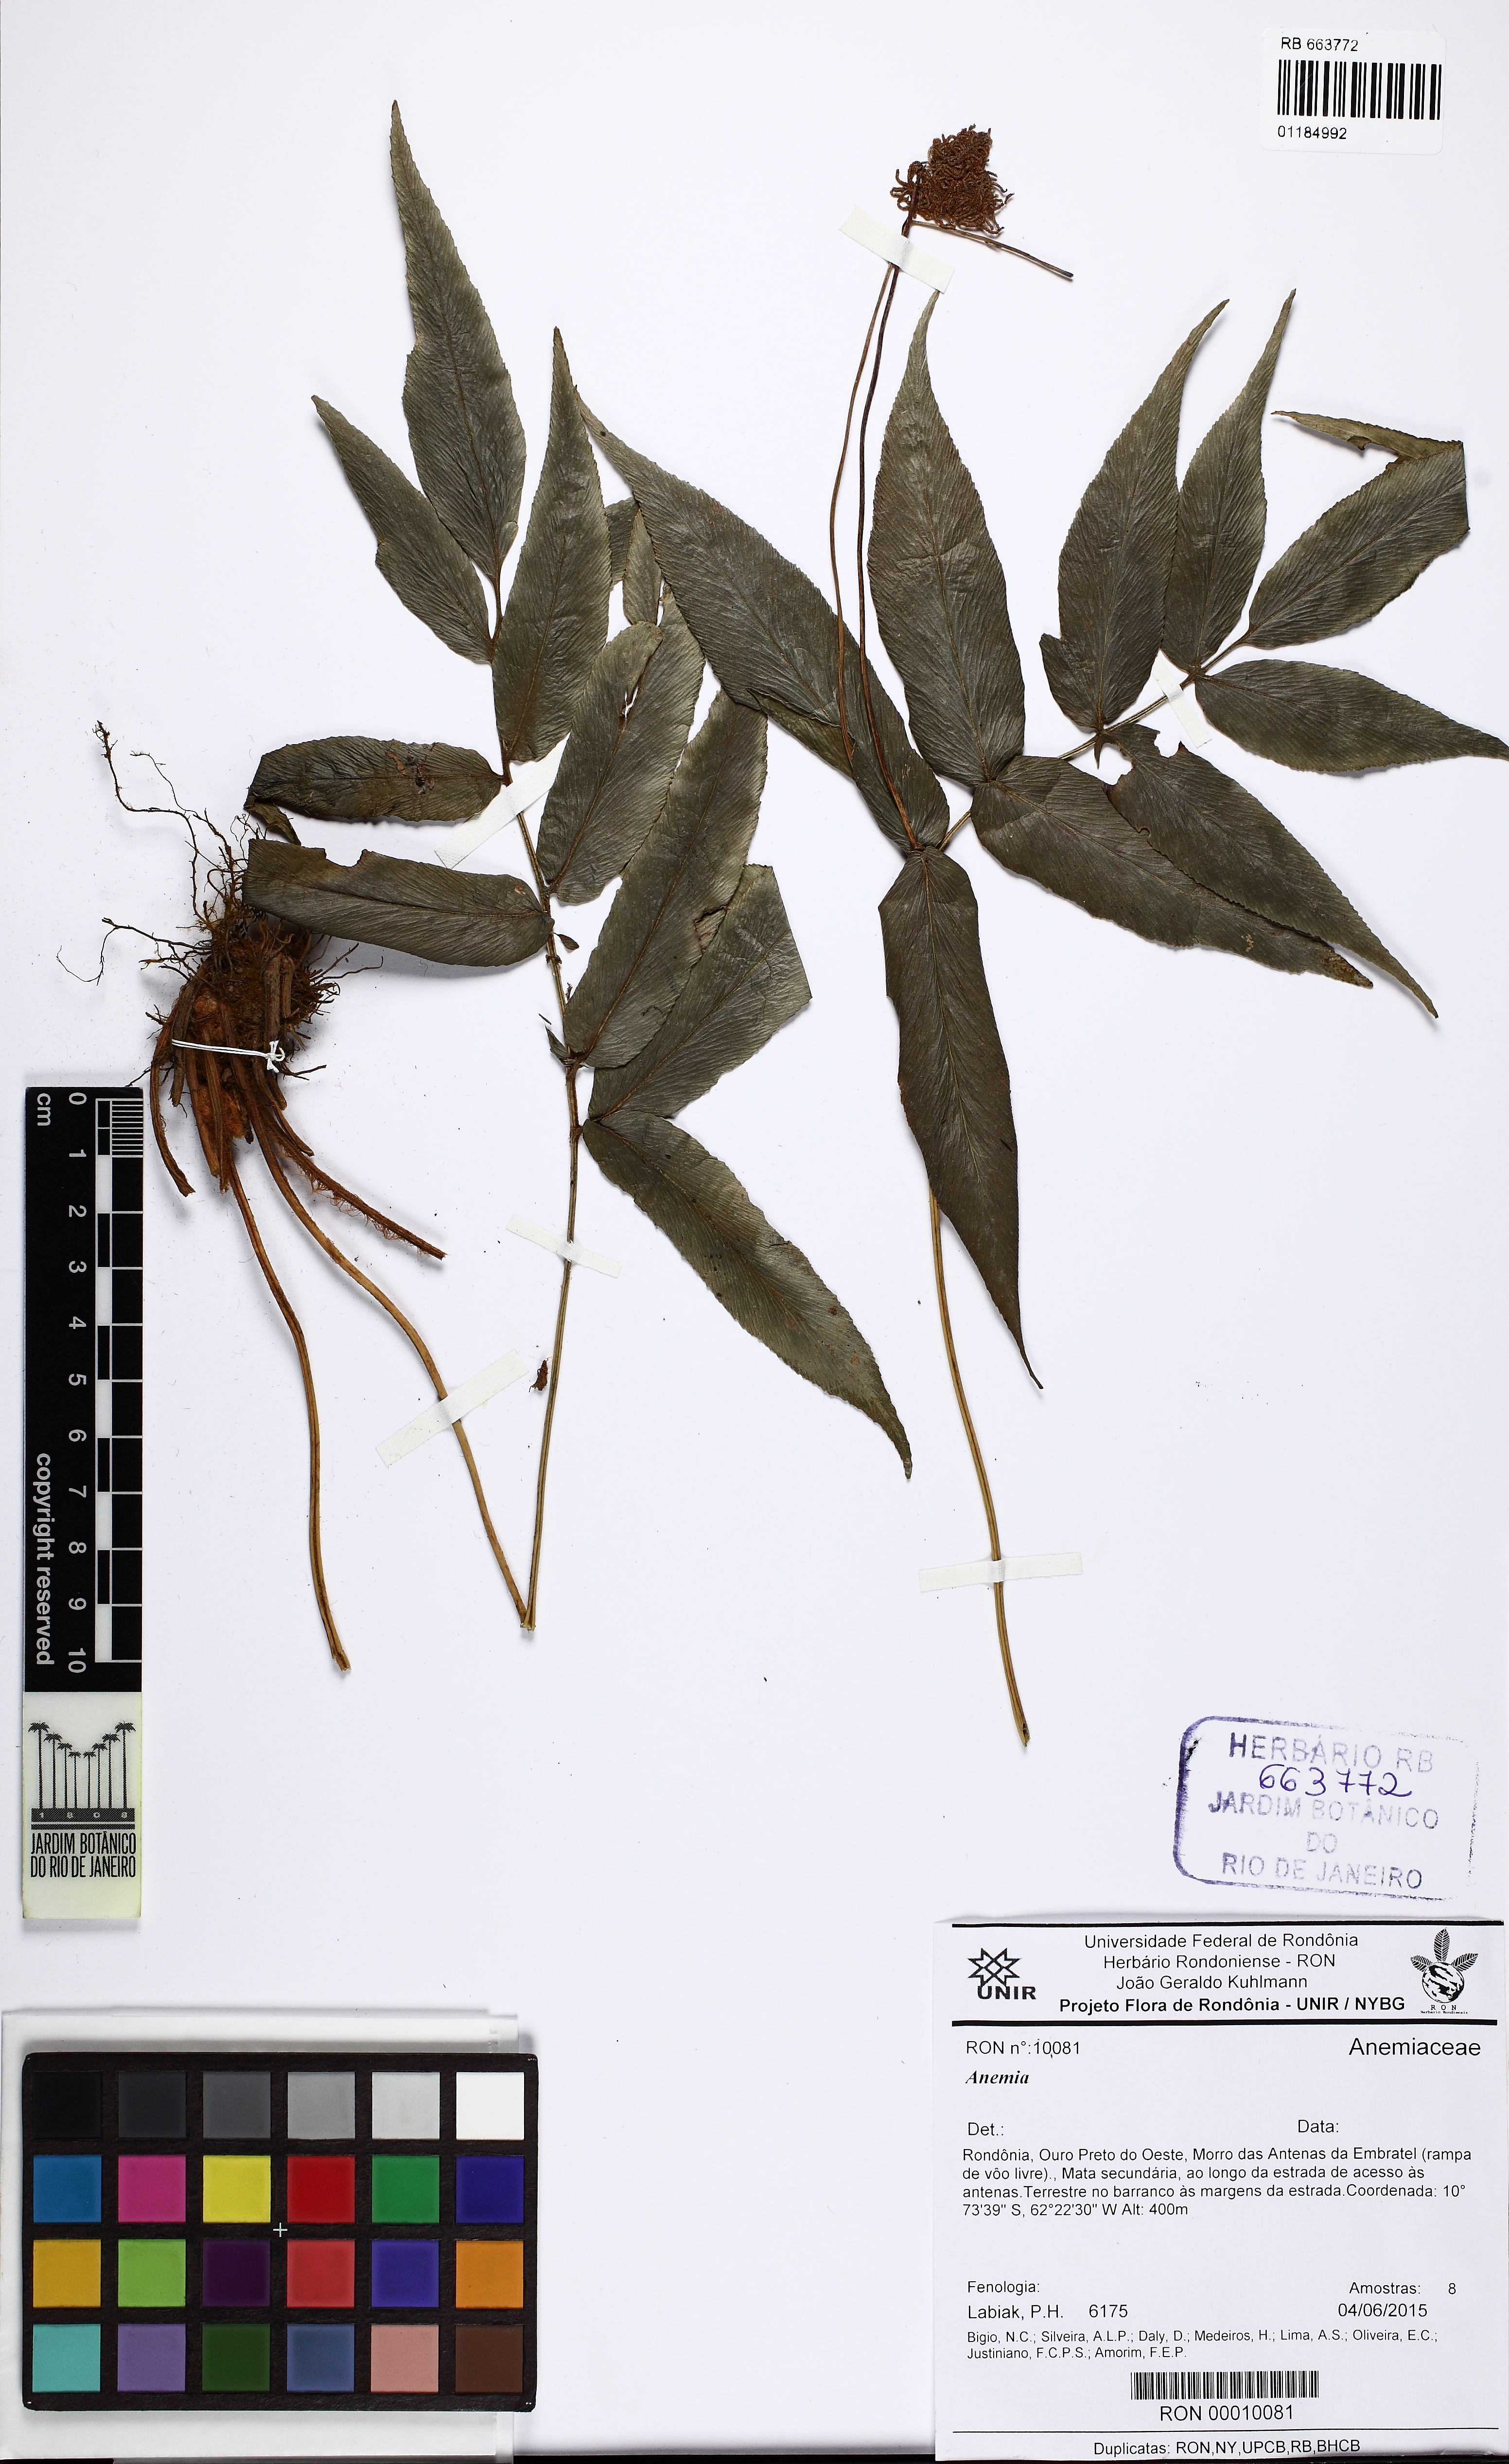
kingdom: Plantae
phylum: Tracheophyta
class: Polypodiopsida
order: Schizaeales
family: Anemiaceae
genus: Anemia
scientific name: Anemia phyllitidis
